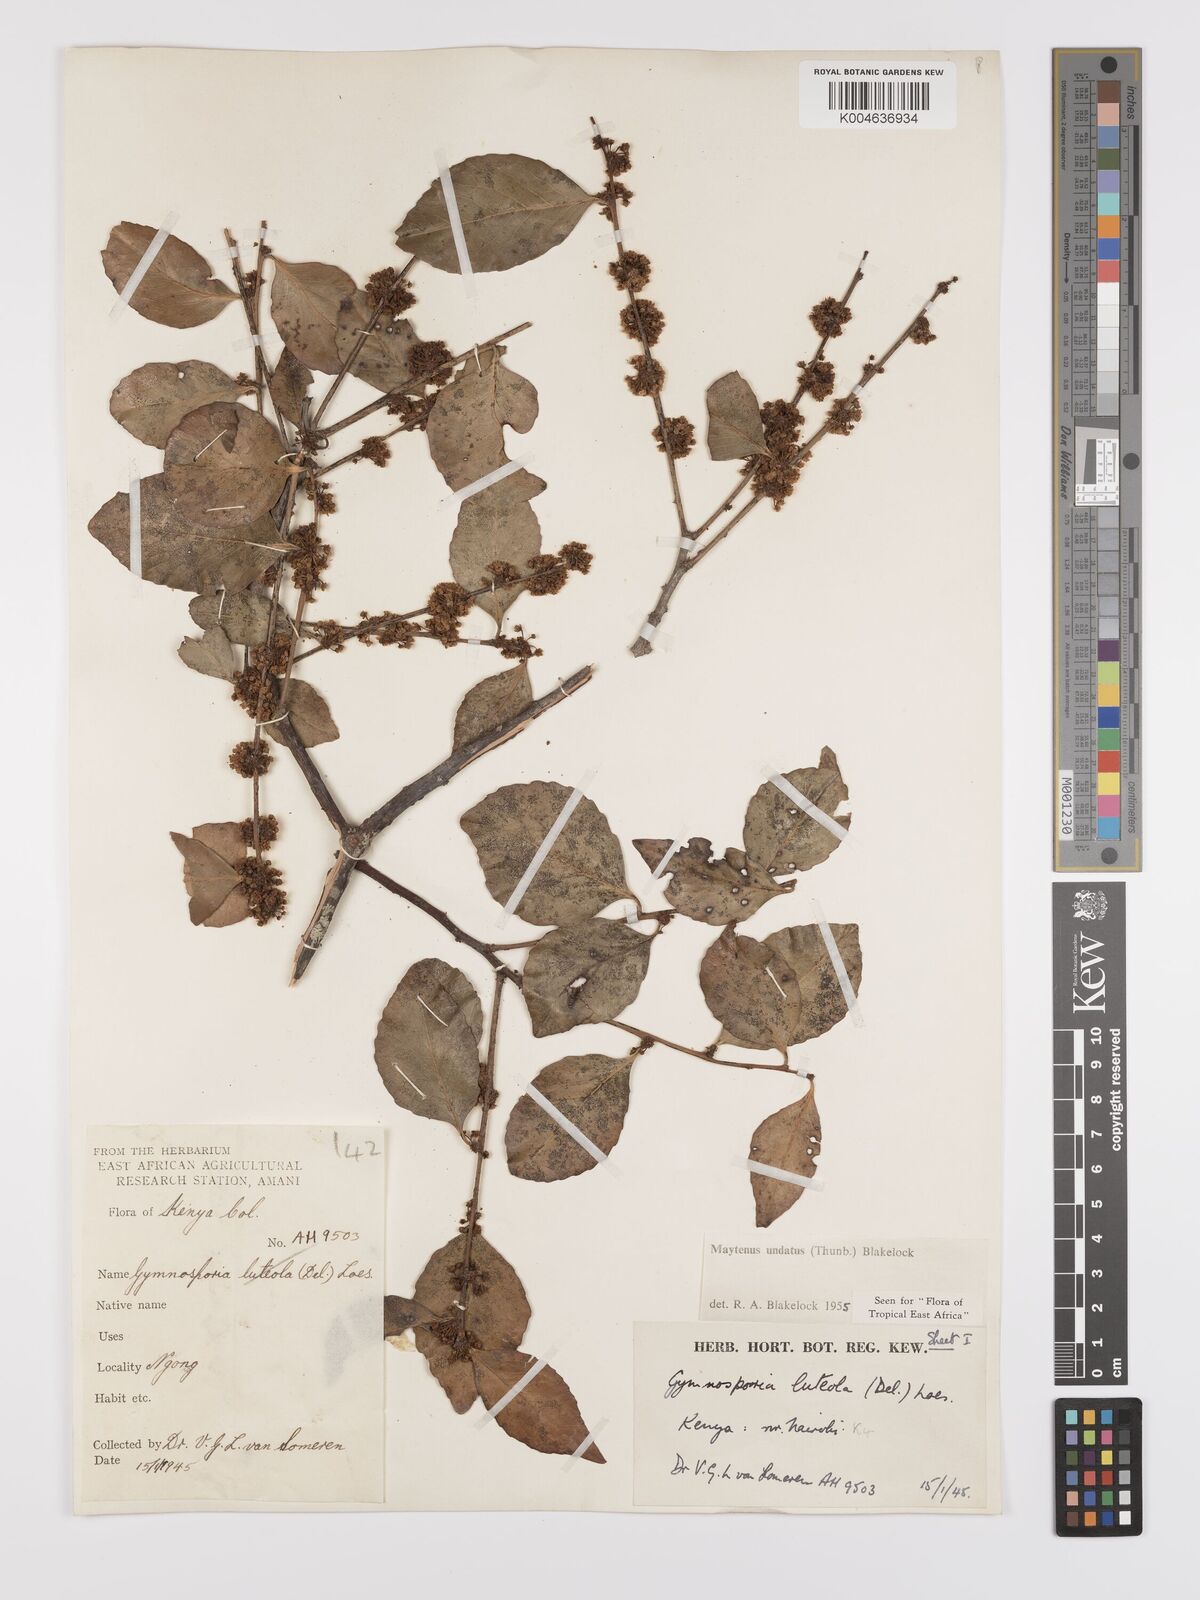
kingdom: Plantae
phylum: Tracheophyta
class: Magnoliopsida
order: Celastrales
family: Celastraceae
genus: Gymnosporia
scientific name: Gymnosporia undata
